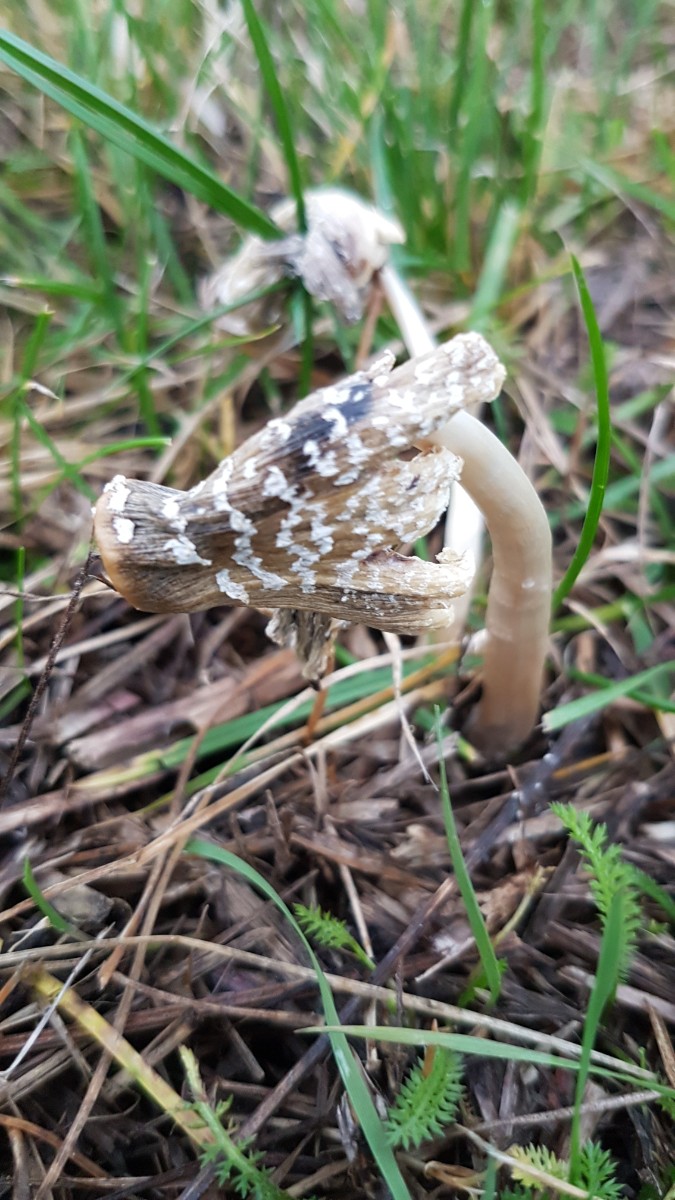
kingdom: Fungi
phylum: Basidiomycota
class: Agaricomycetes
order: Agaricales
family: Psathyrellaceae
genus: Coprinopsis
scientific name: Coprinopsis
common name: blækhat
